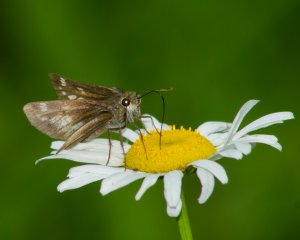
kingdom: Animalia
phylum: Arthropoda
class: Insecta
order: Lepidoptera
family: Hesperiidae
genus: Lon
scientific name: Lon hobomok
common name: Hobomok Skipper
